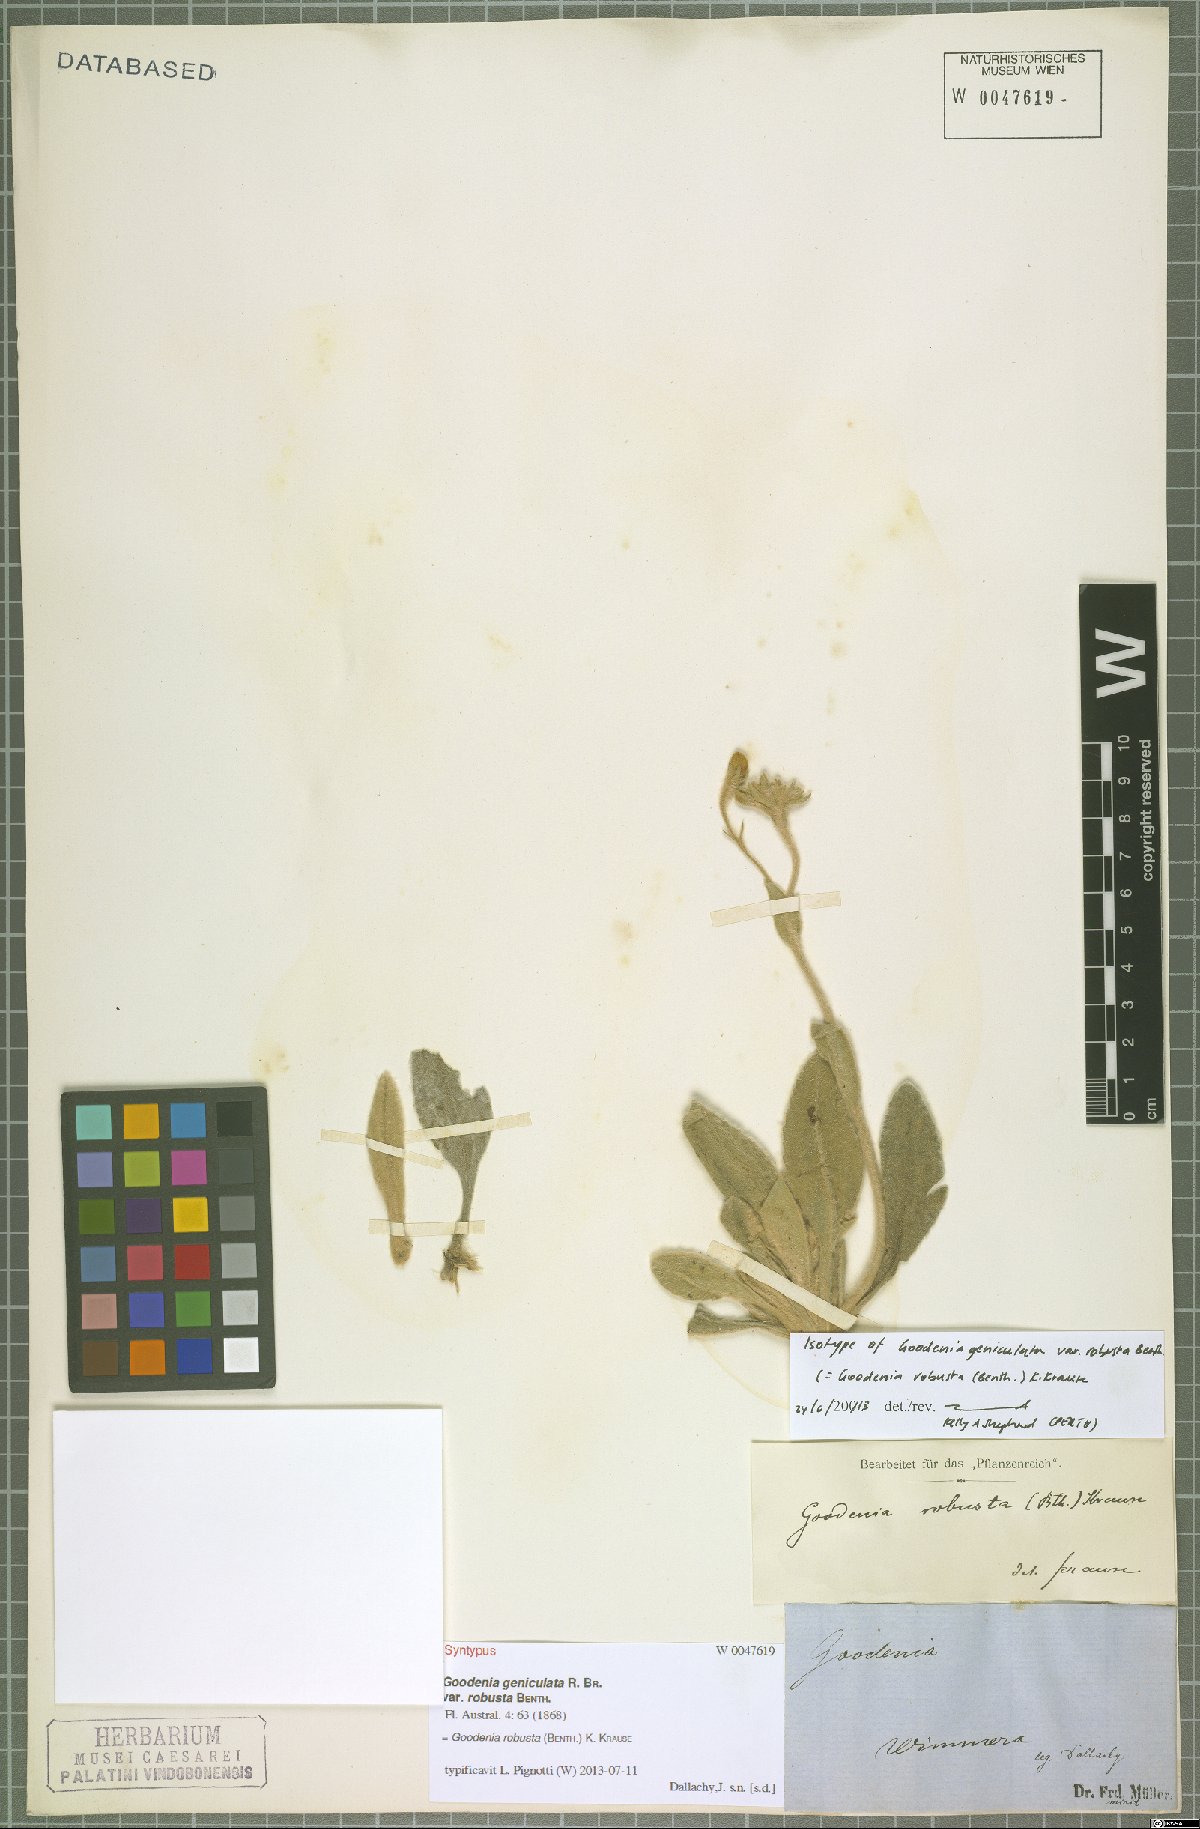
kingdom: Plantae
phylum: Tracheophyta
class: Magnoliopsida
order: Asterales
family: Goodeniaceae
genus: Goodenia
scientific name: Goodenia robusta
